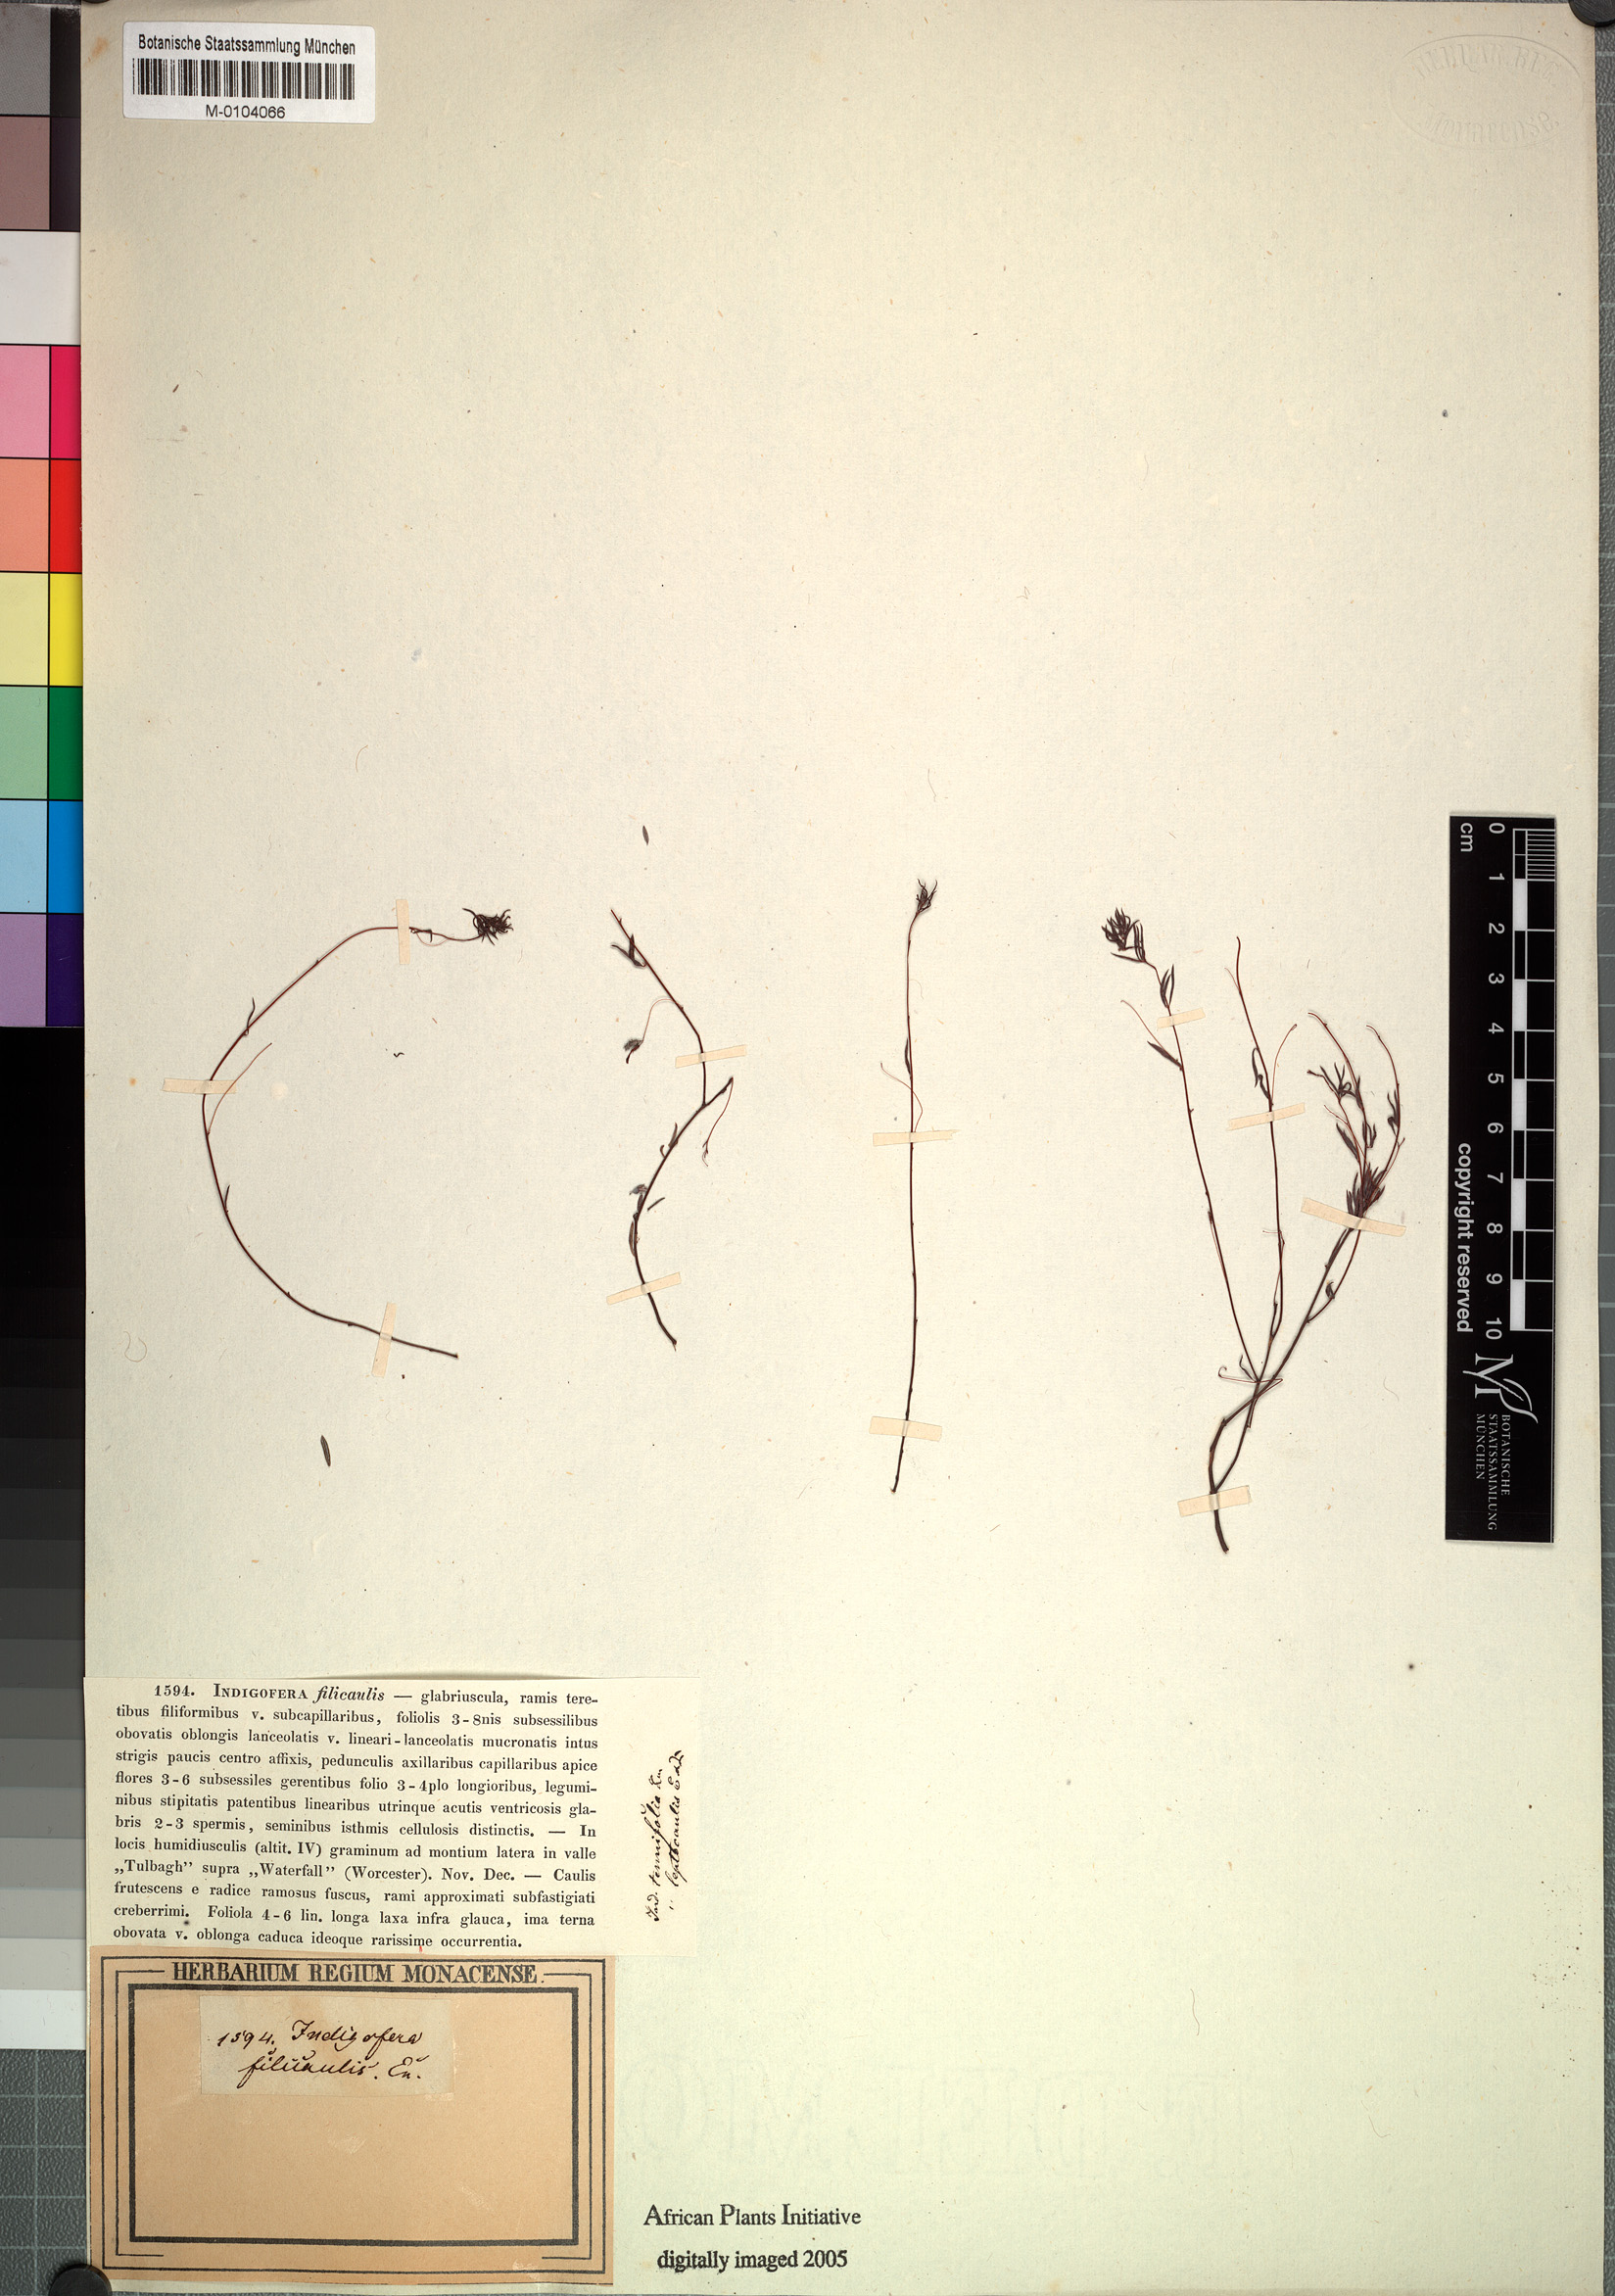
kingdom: Plantae
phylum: Tracheophyta
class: Magnoliopsida
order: Fabales
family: Fabaceae
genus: Indigofera
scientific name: Indigofera filicaulis
